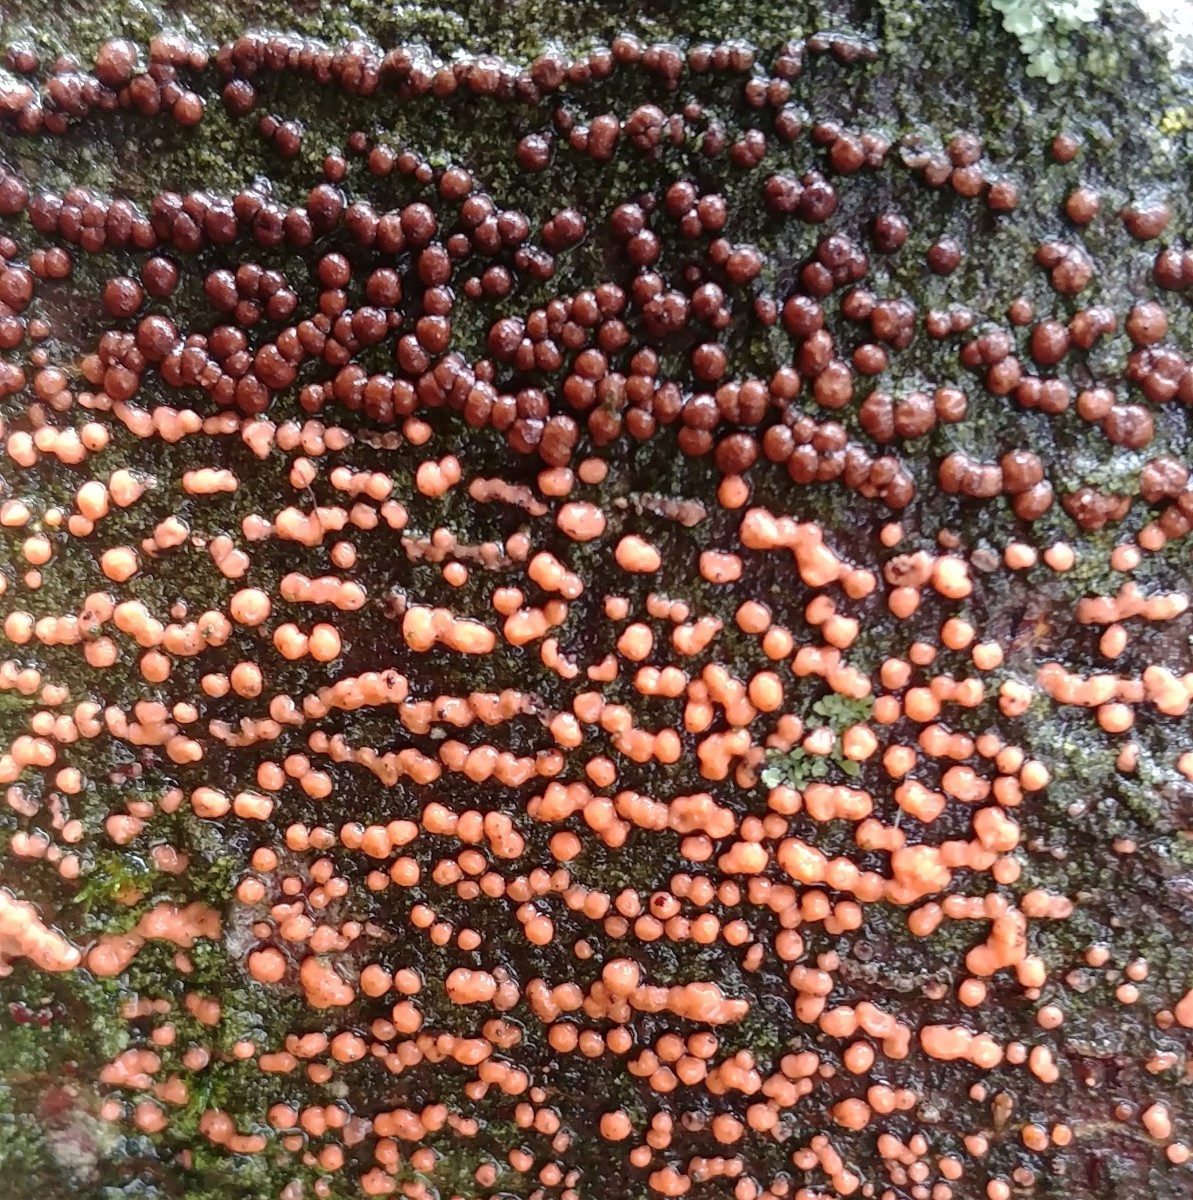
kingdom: Fungi
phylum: Ascomycota
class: Sordariomycetes
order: Hypocreales
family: Nectriaceae
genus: Nectria
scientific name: Nectria cinnabarina
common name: almindelig cinnobersvamp
